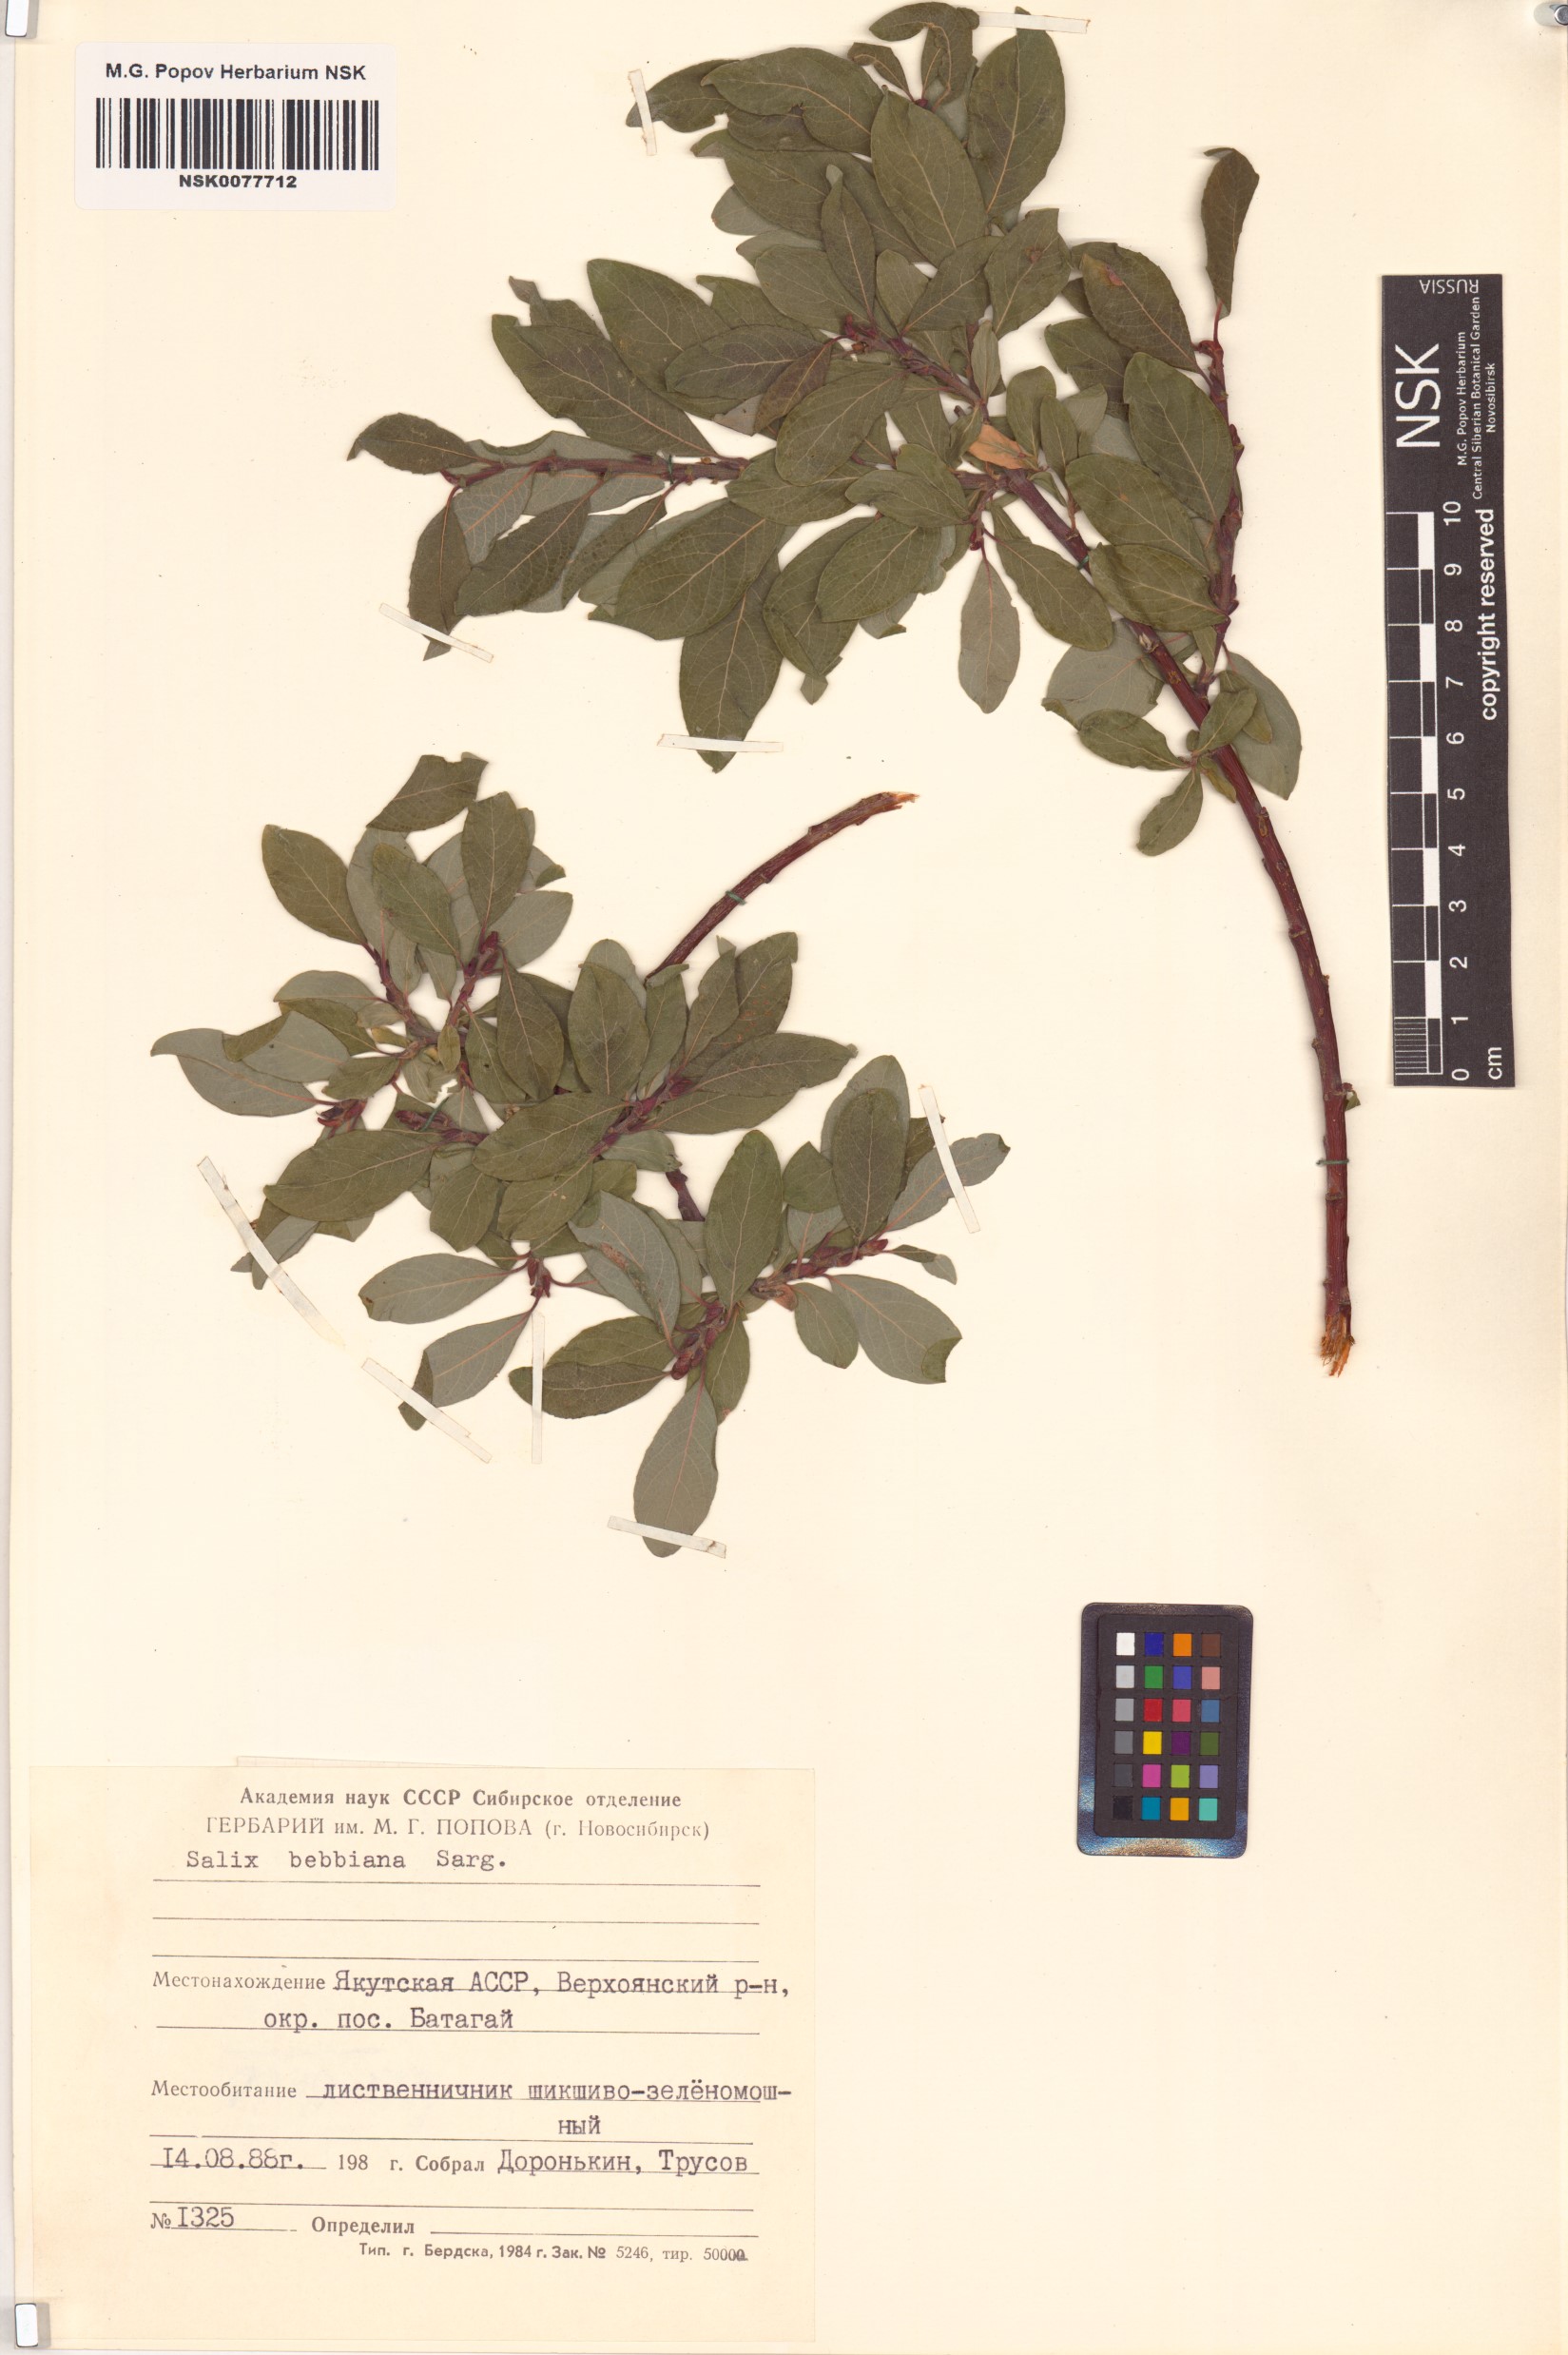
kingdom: Plantae
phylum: Tracheophyta
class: Magnoliopsida
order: Malpighiales
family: Salicaceae
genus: Salix
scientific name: Salix bebbiana
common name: Bebb's willow
